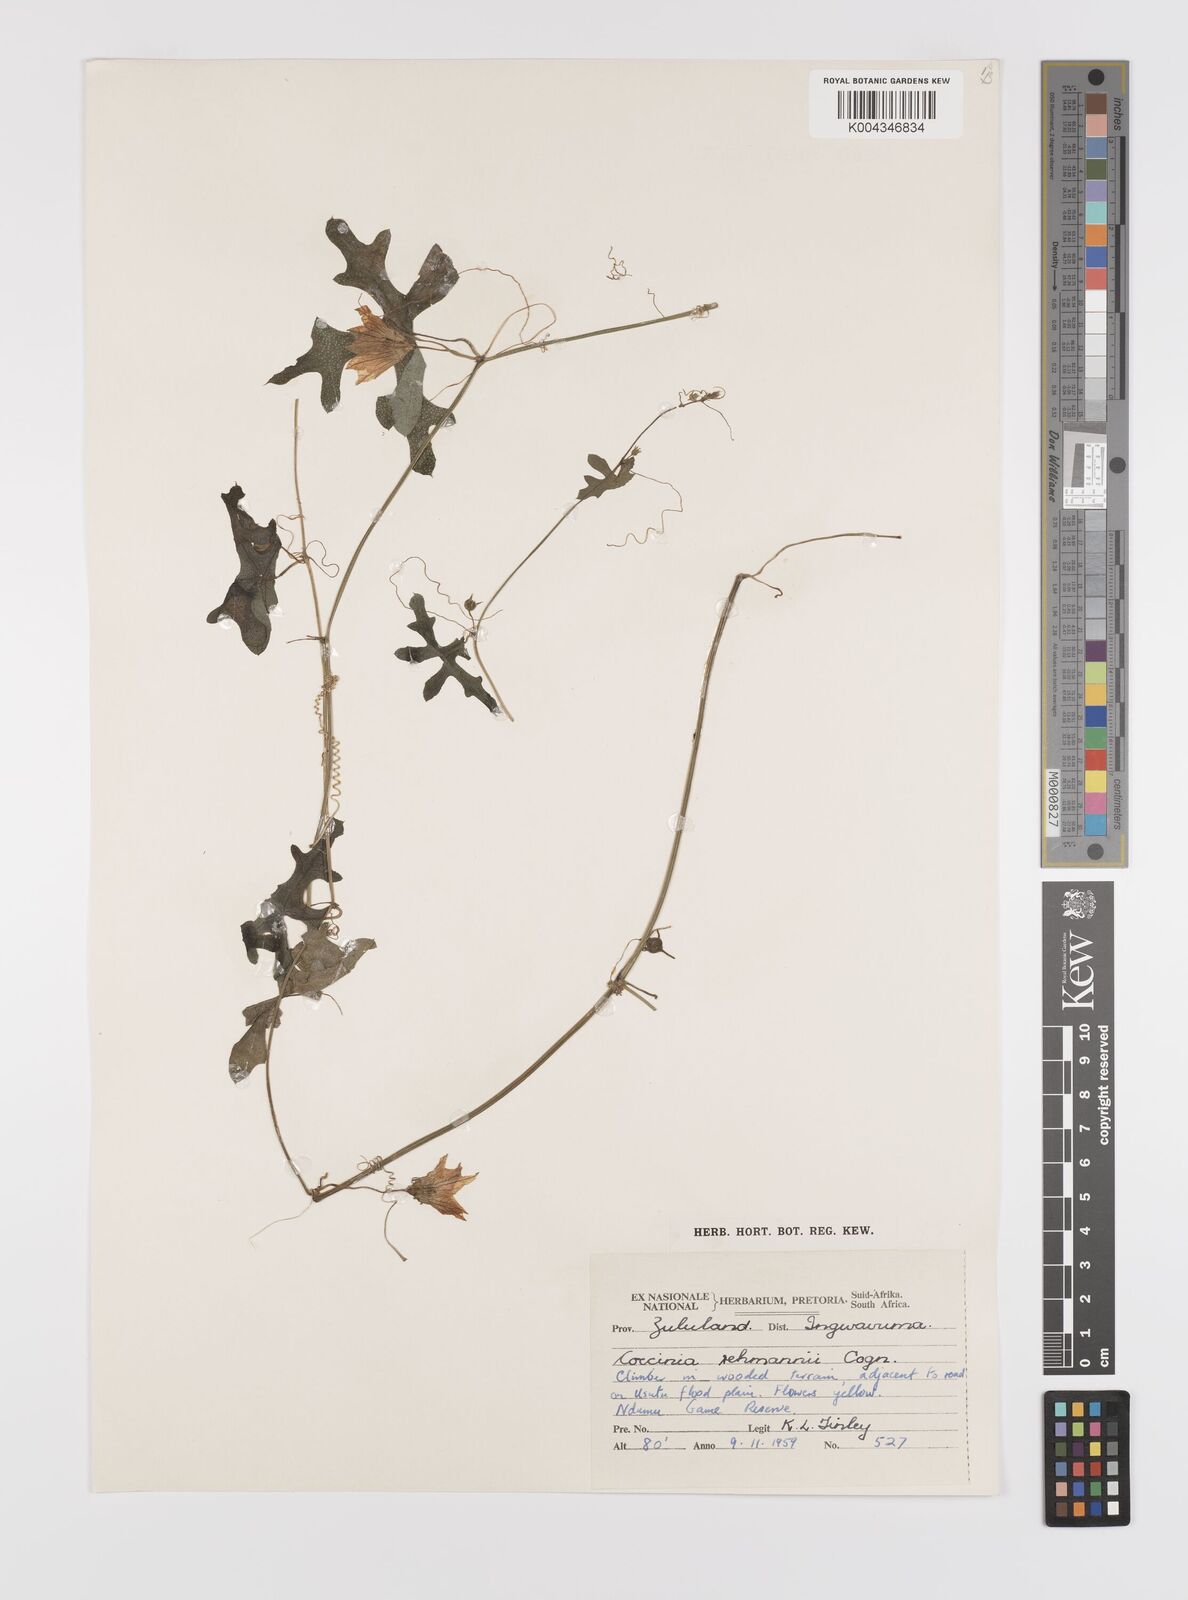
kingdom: Plantae
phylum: Tracheophyta
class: Magnoliopsida
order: Cucurbitales
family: Cucurbitaceae
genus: Coccinia
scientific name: Coccinia rehmannii
